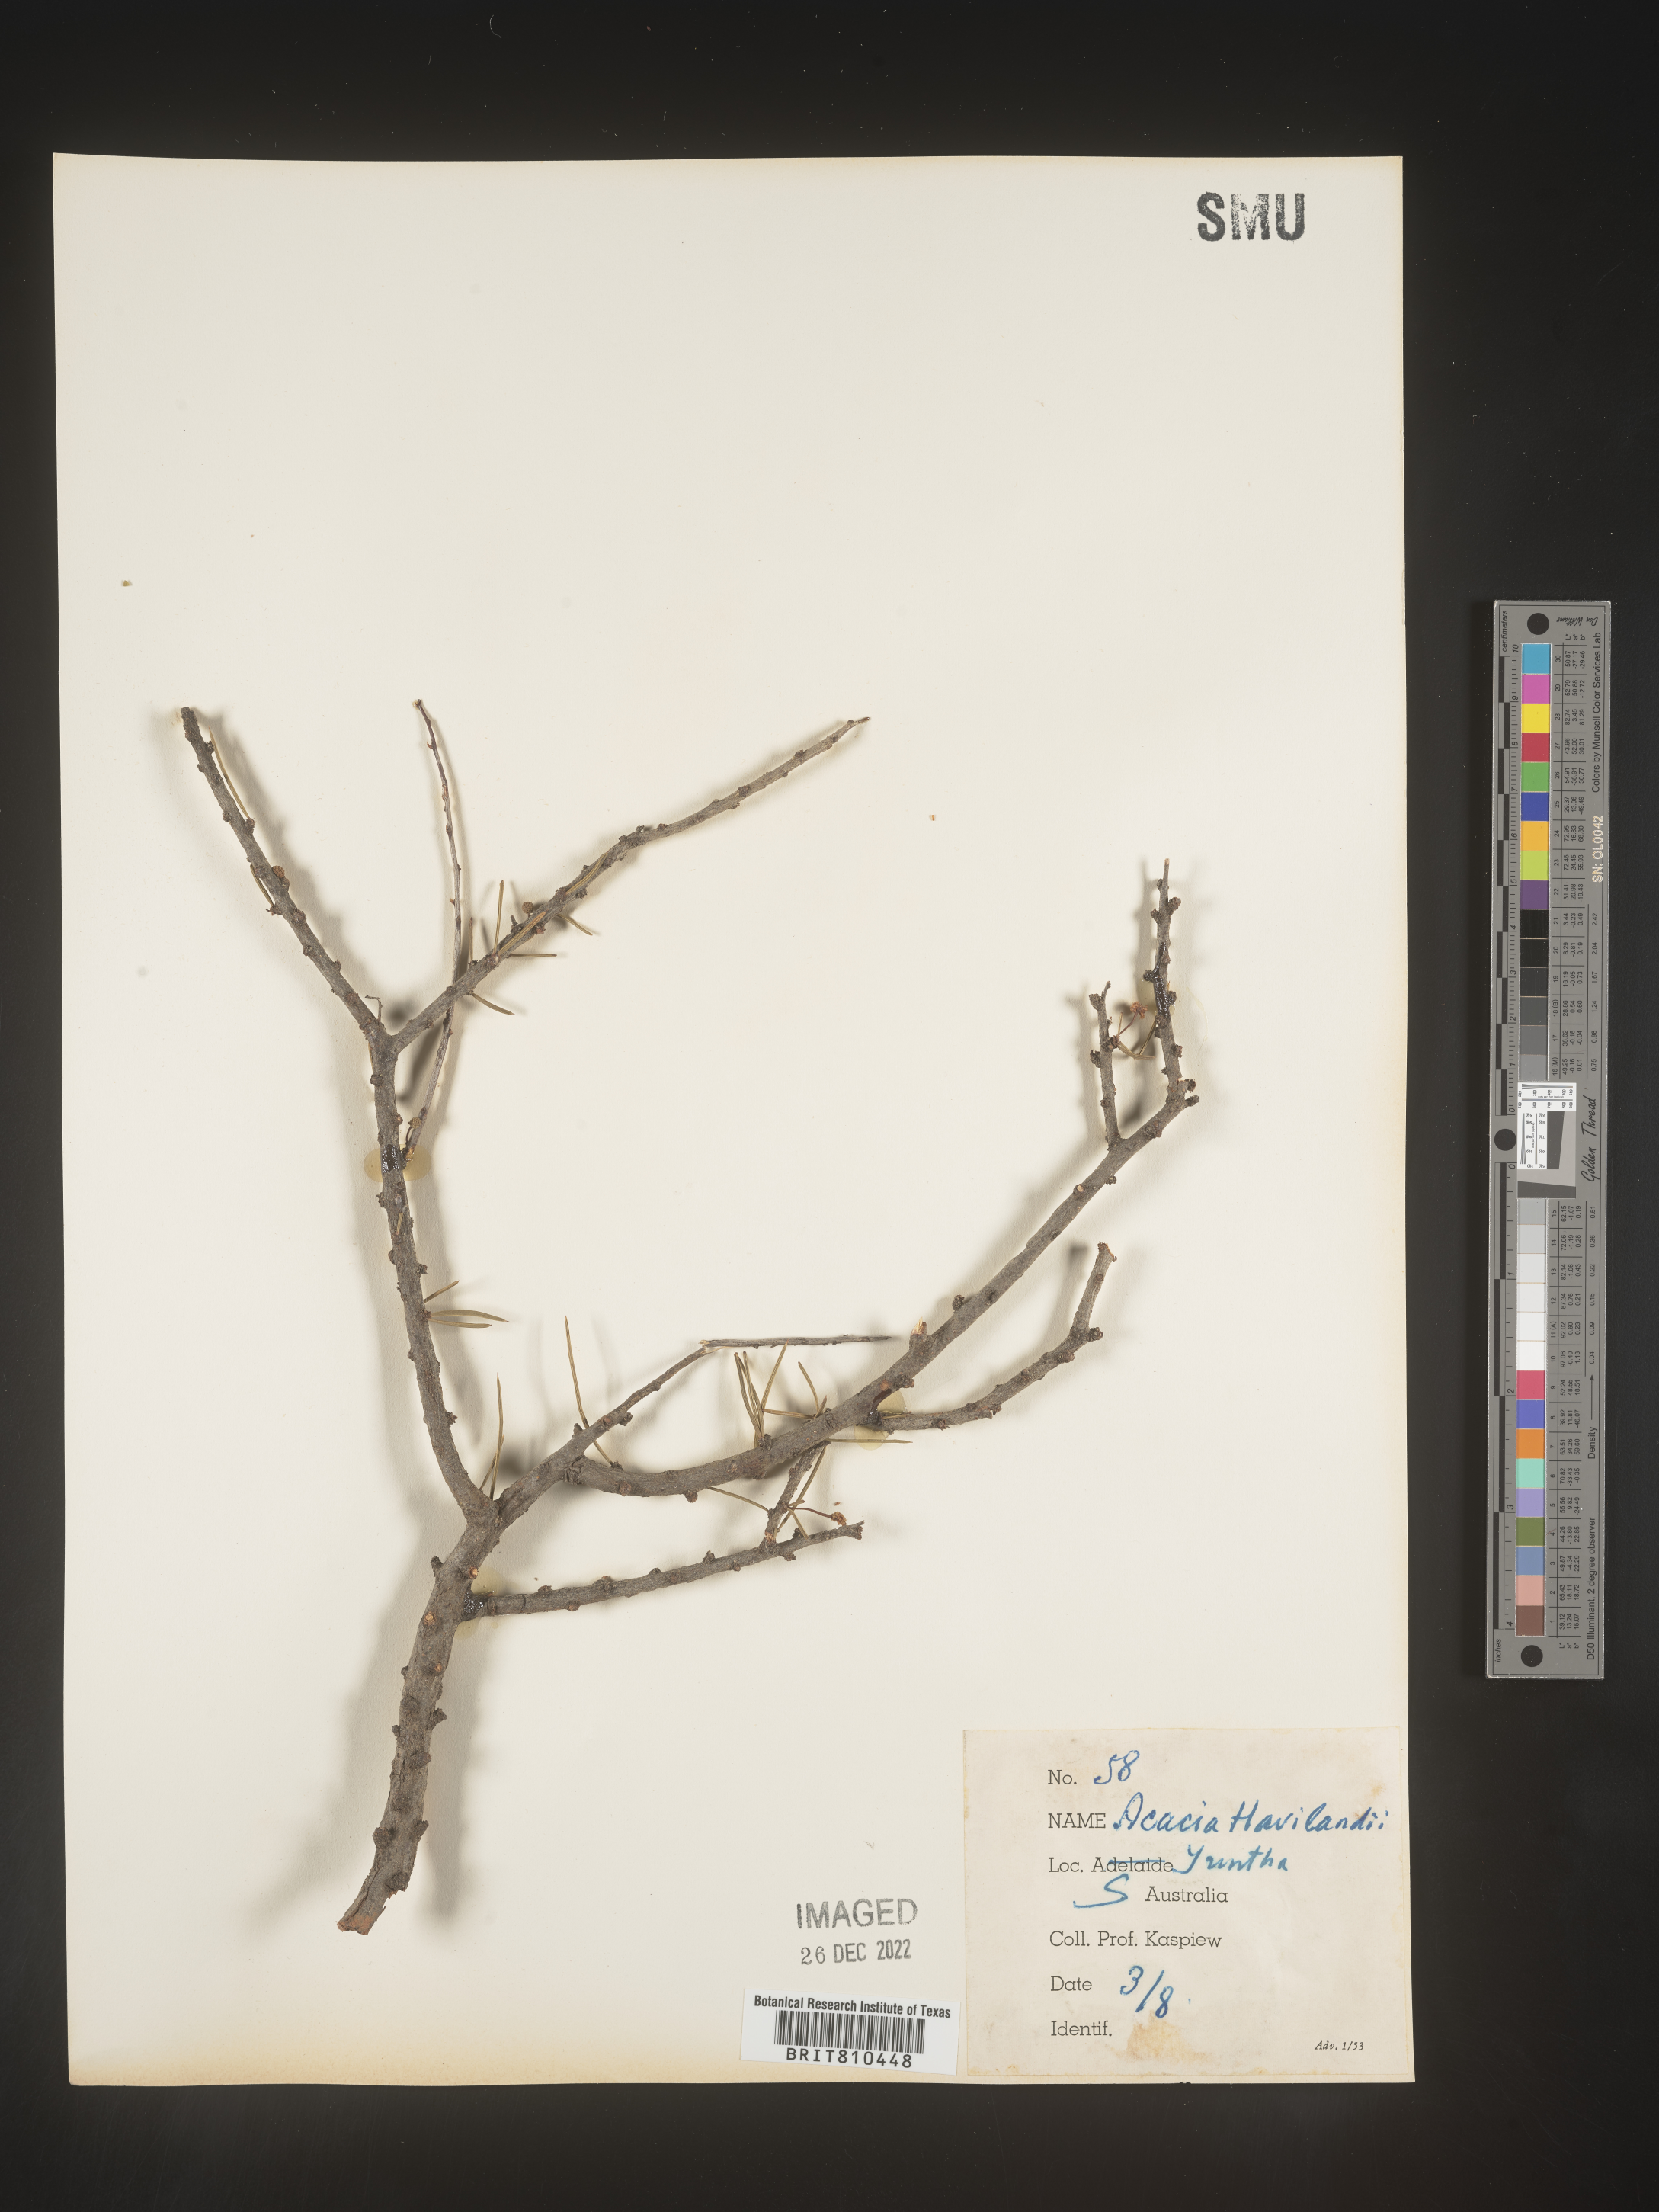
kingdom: Plantae
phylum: Tracheophyta
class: Magnoliopsida
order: Fabales
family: Fabaceae
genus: Acacia
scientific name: Acacia
